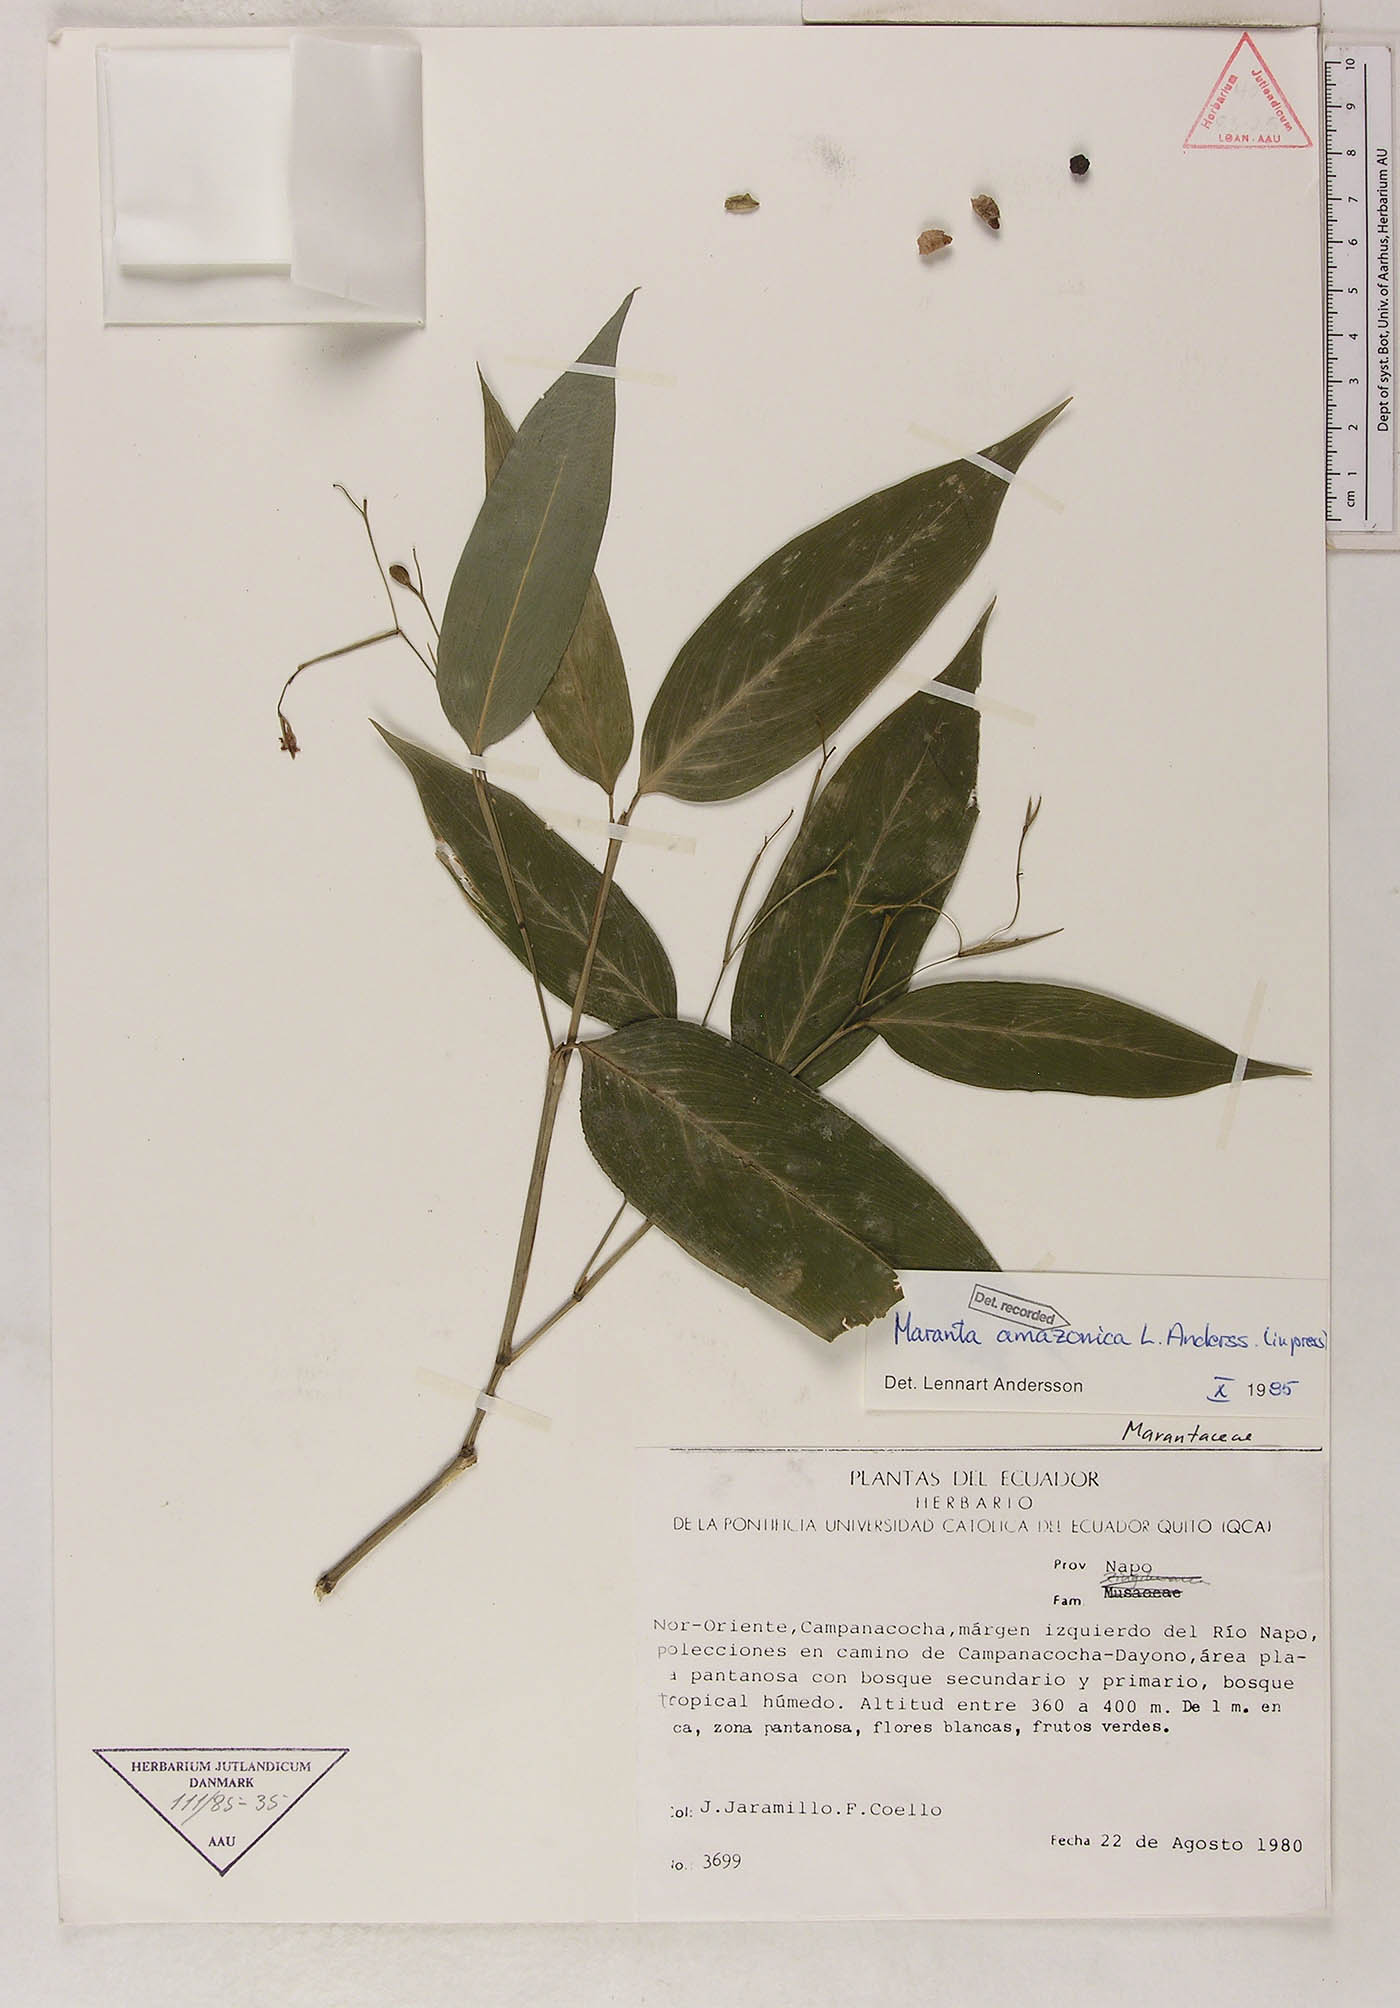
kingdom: Plantae
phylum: Tracheophyta
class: Liliopsida
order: Zingiberales
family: Marantaceae
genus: Maranta
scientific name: Maranta amazonica
